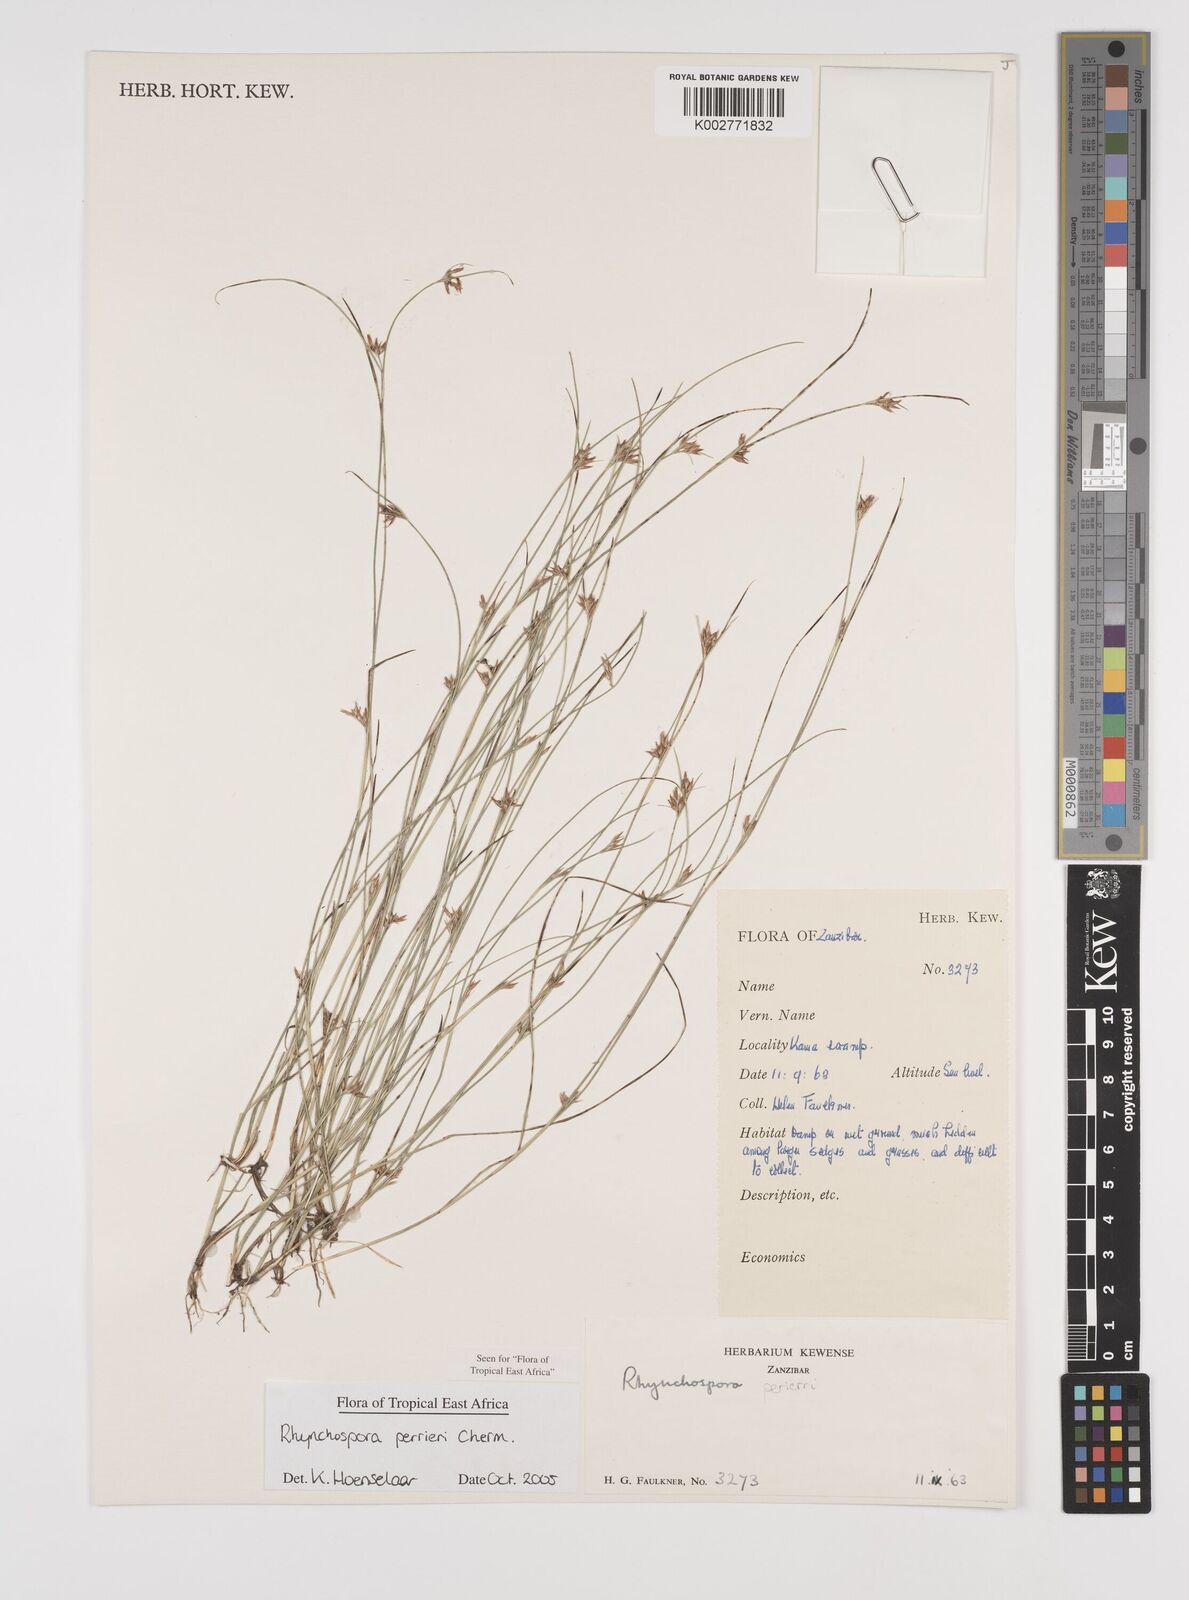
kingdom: Plantae
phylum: Tracheophyta
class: Liliopsida
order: Poales
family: Cyperaceae
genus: Rhynchospora
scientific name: Rhynchospora perrieri
